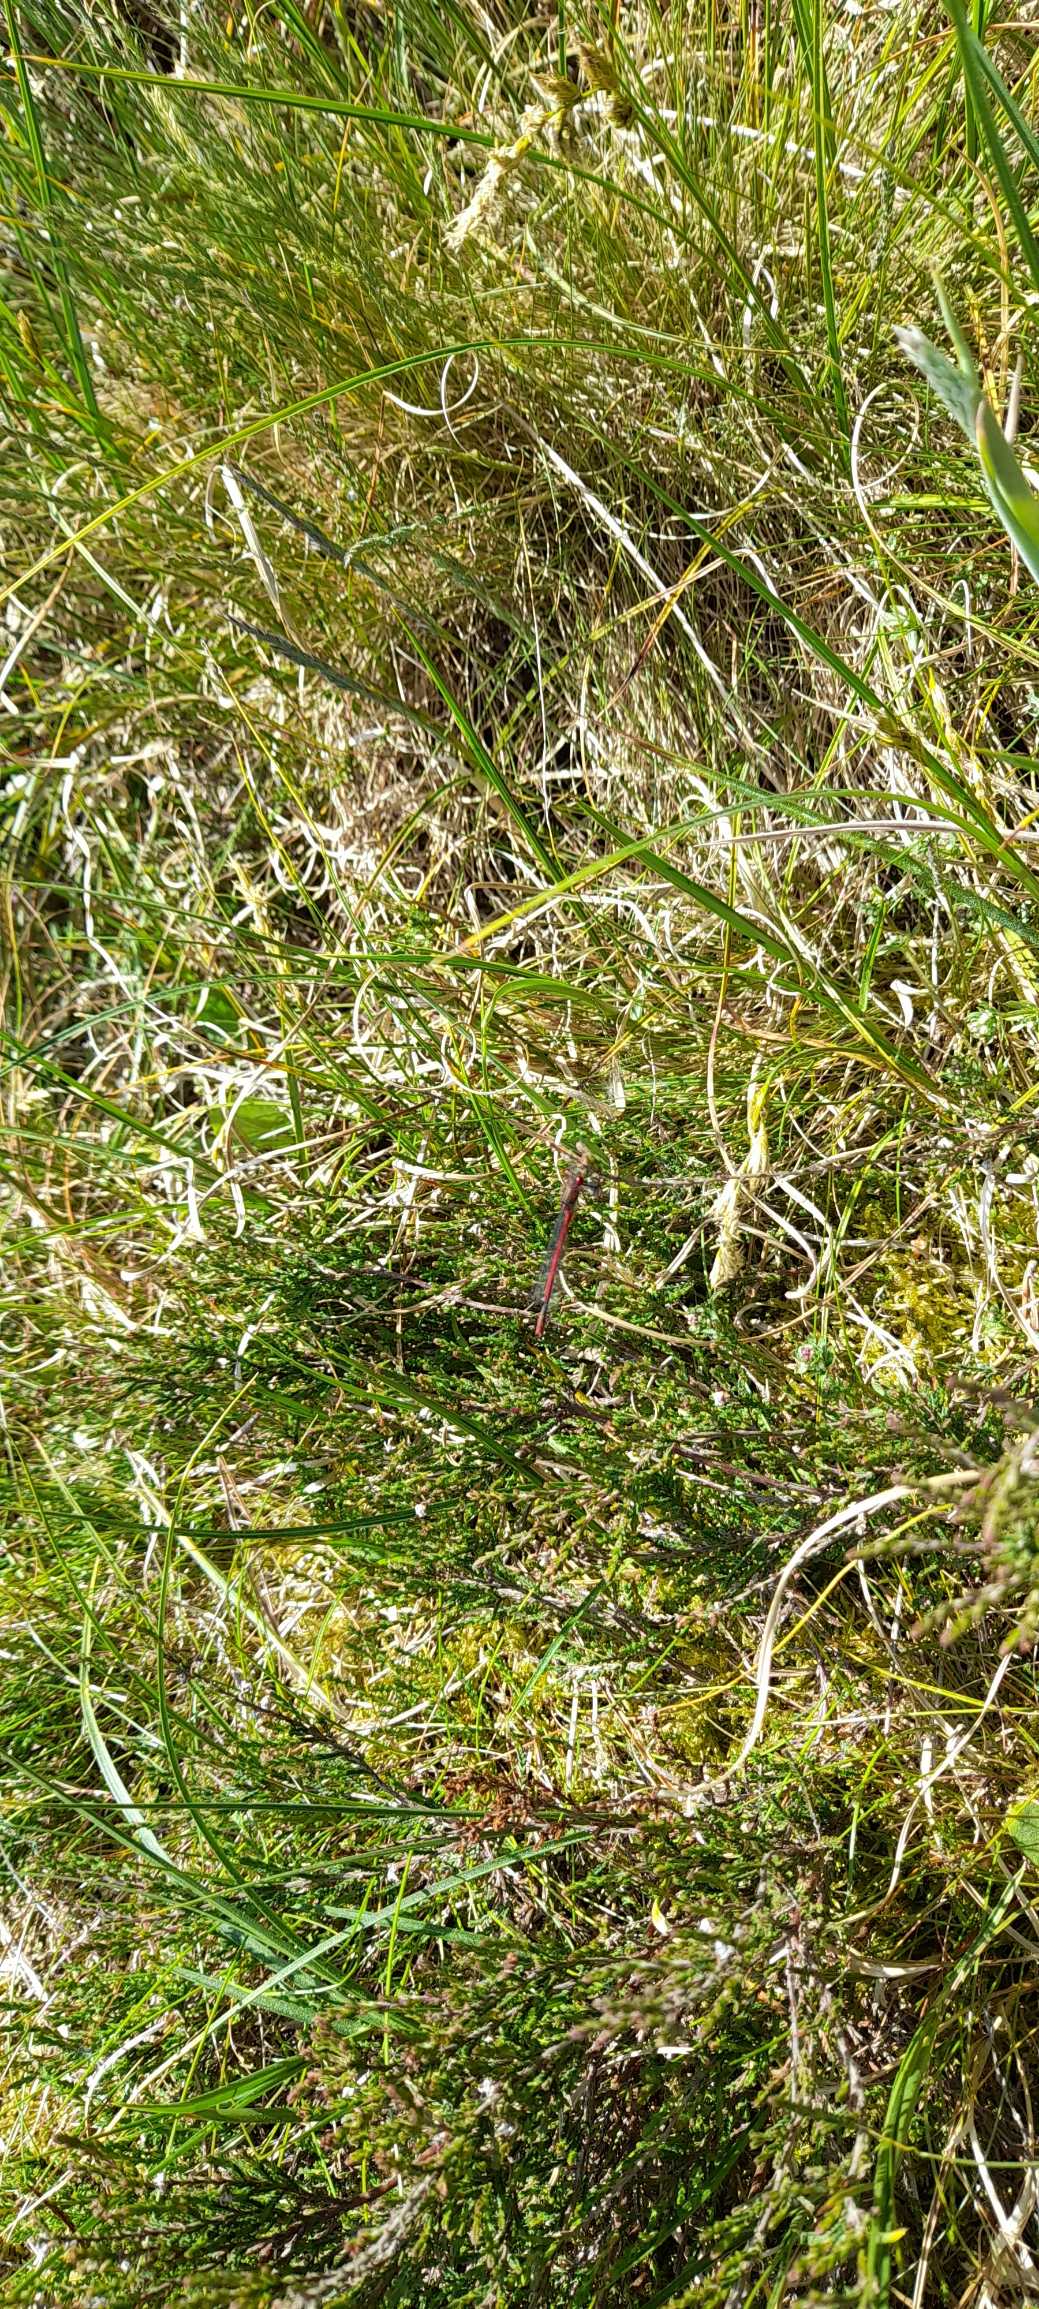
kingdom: Animalia
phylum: Arthropoda
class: Insecta
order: Odonata
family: Coenagrionidae
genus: Pyrrhosoma
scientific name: Pyrrhosoma nymphula
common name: Rød vandnymfe
